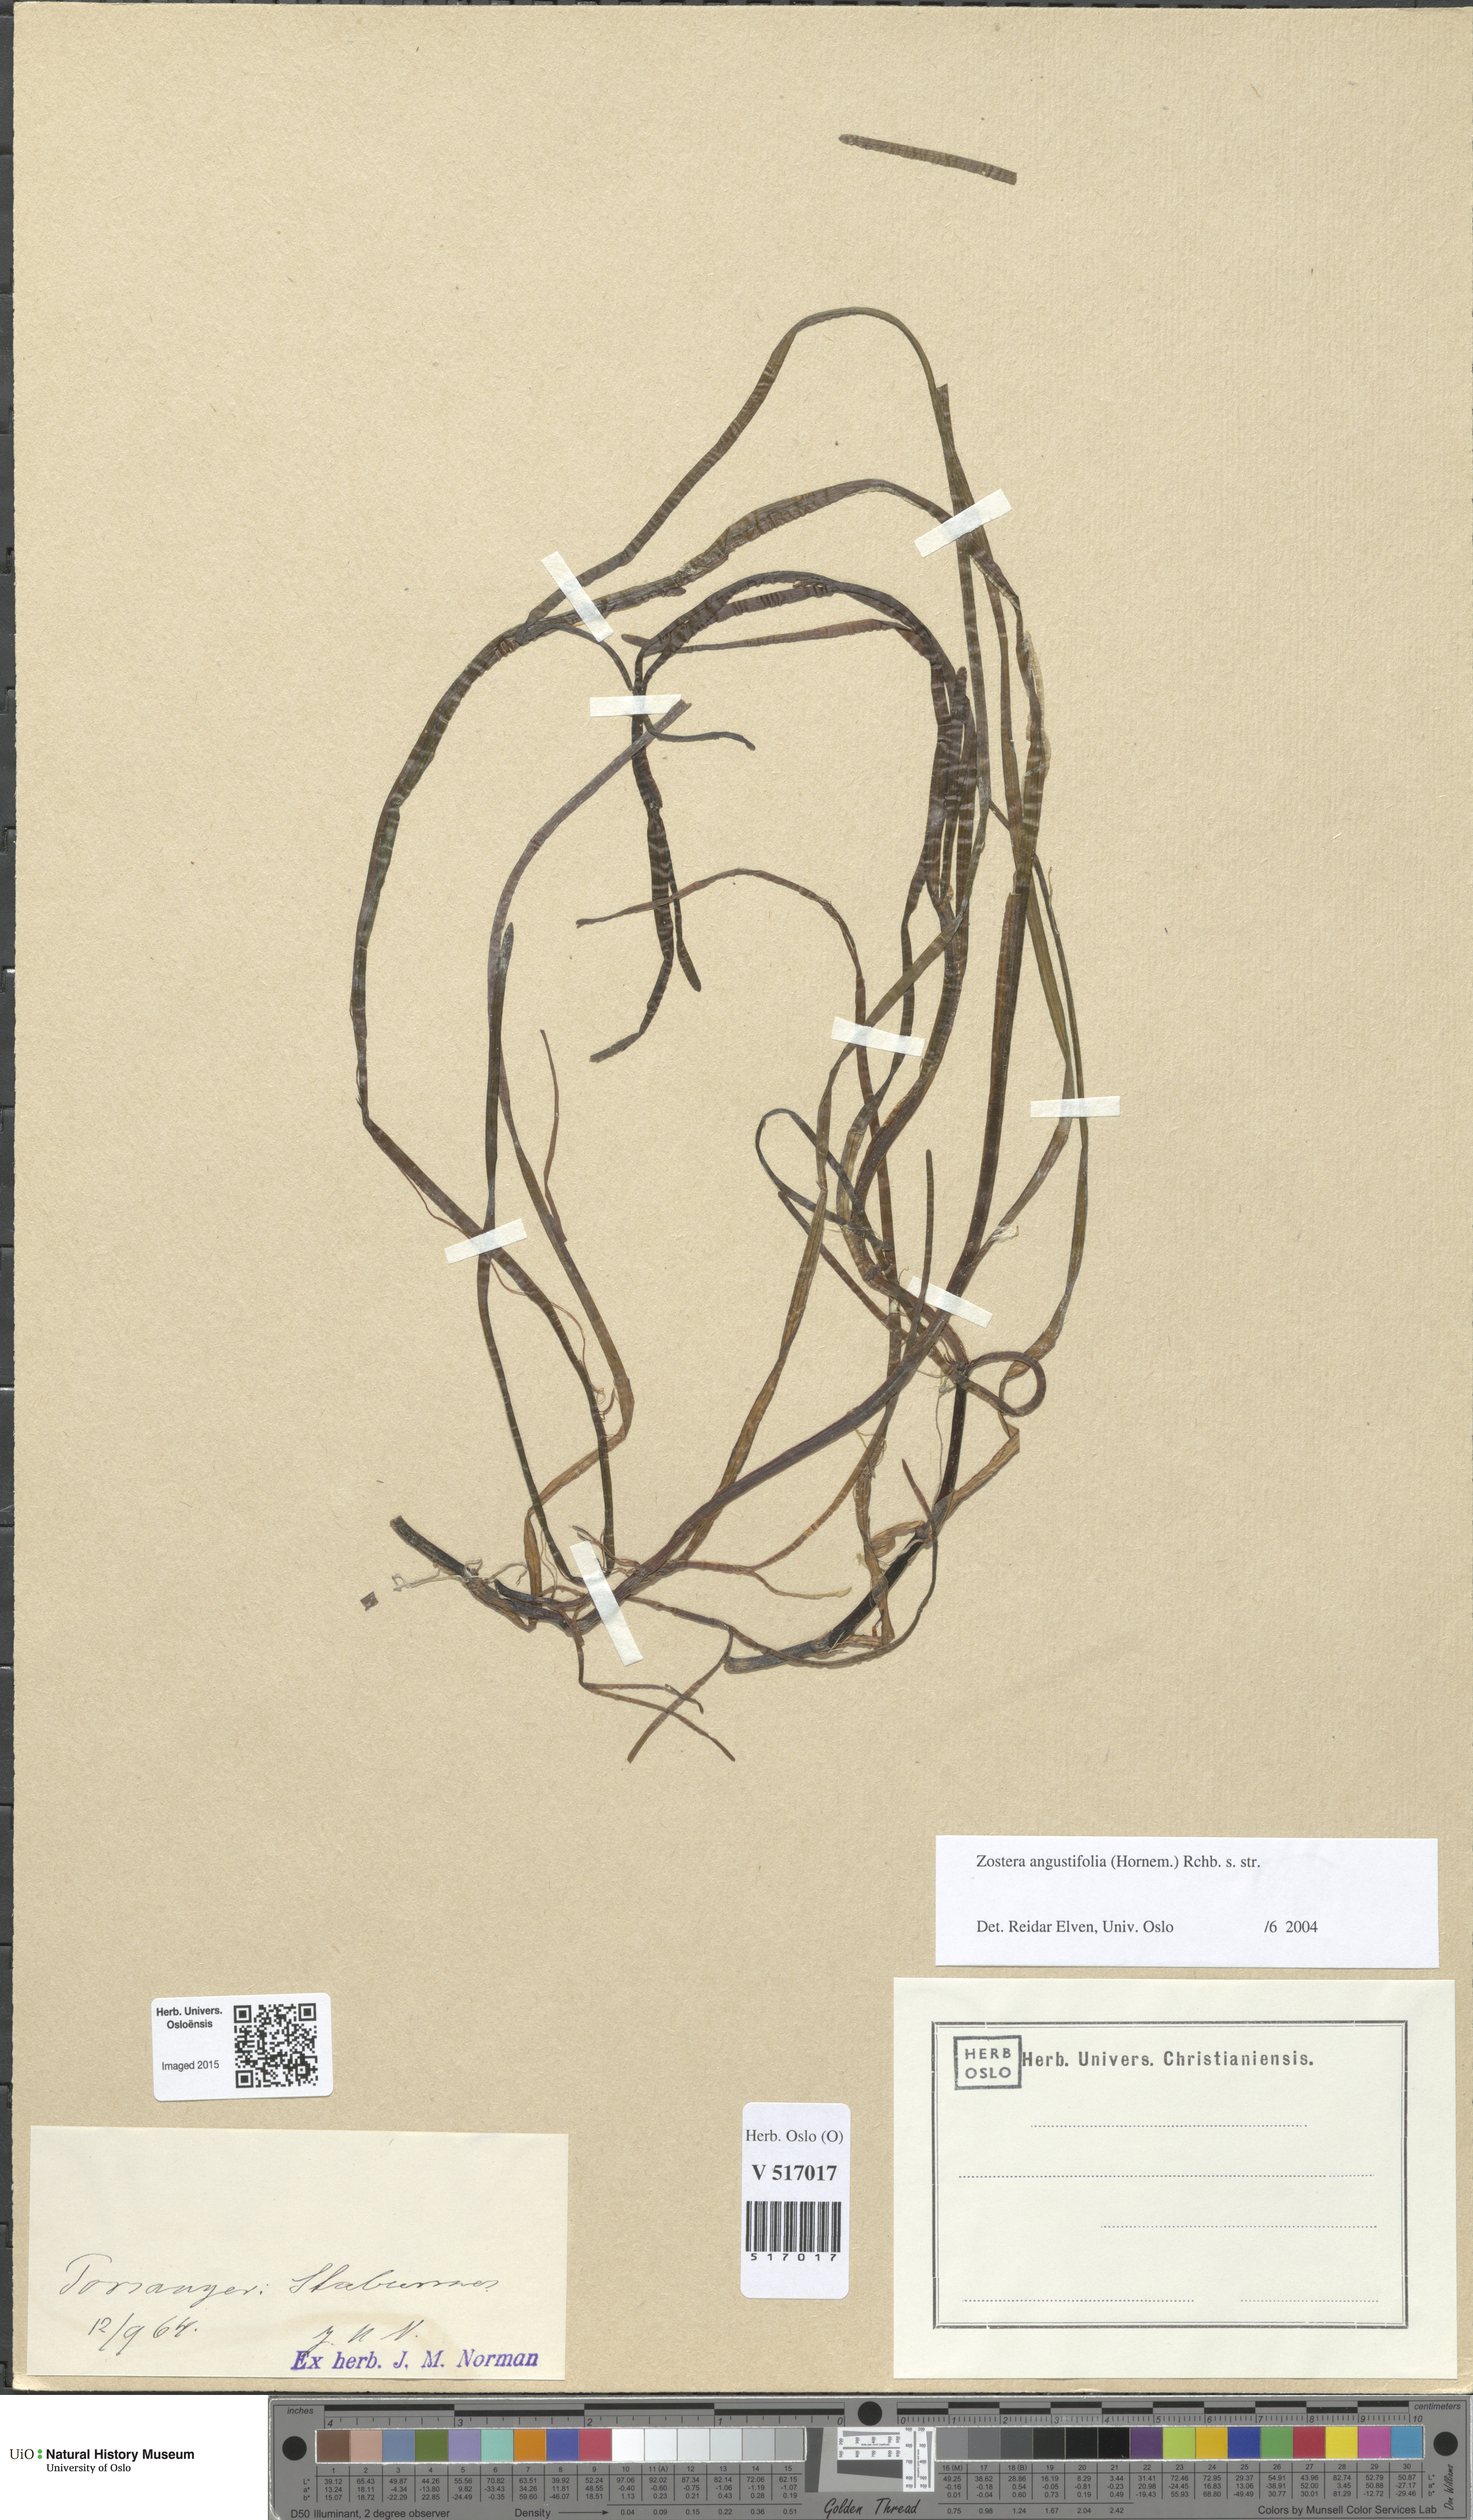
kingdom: Plantae
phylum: Tracheophyta
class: Liliopsida
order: Alismatales
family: Zosteraceae
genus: Zostera
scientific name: Zostera angustifolia
